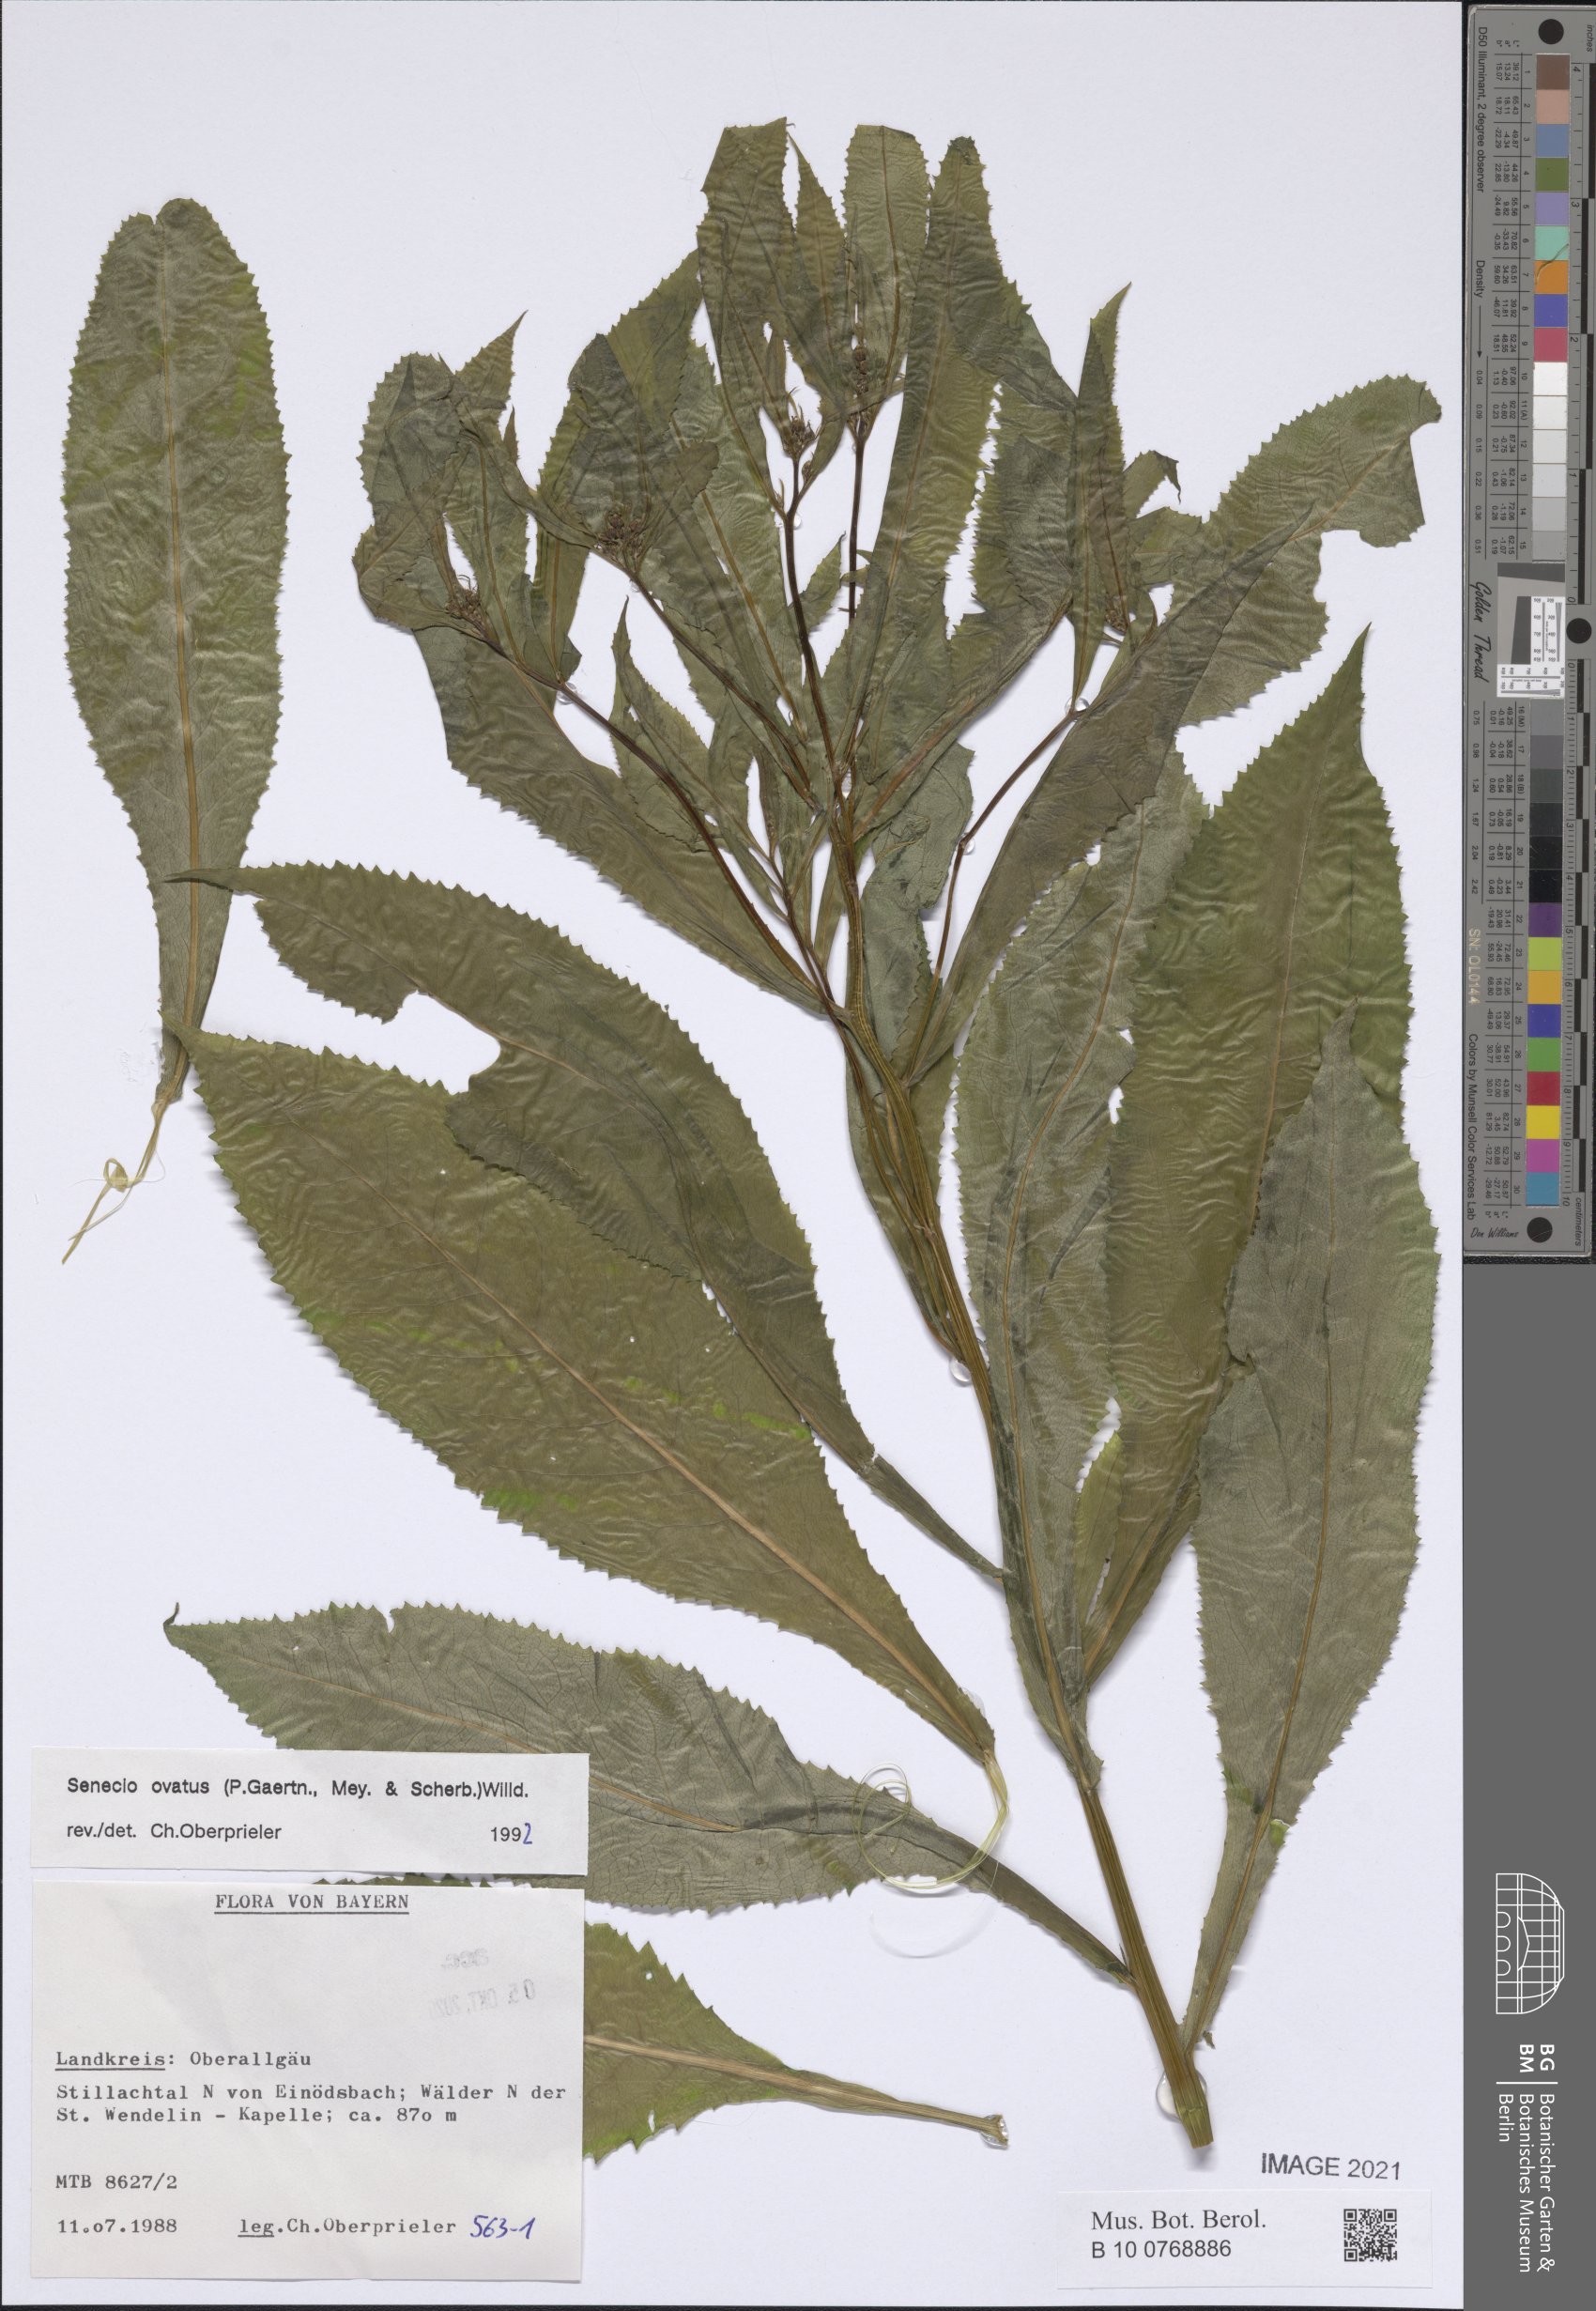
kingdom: Plantae
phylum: Tracheophyta
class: Magnoliopsida
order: Asterales
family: Asteraceae
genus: Senecio
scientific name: Senecio ovatus
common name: Wood ragwort
